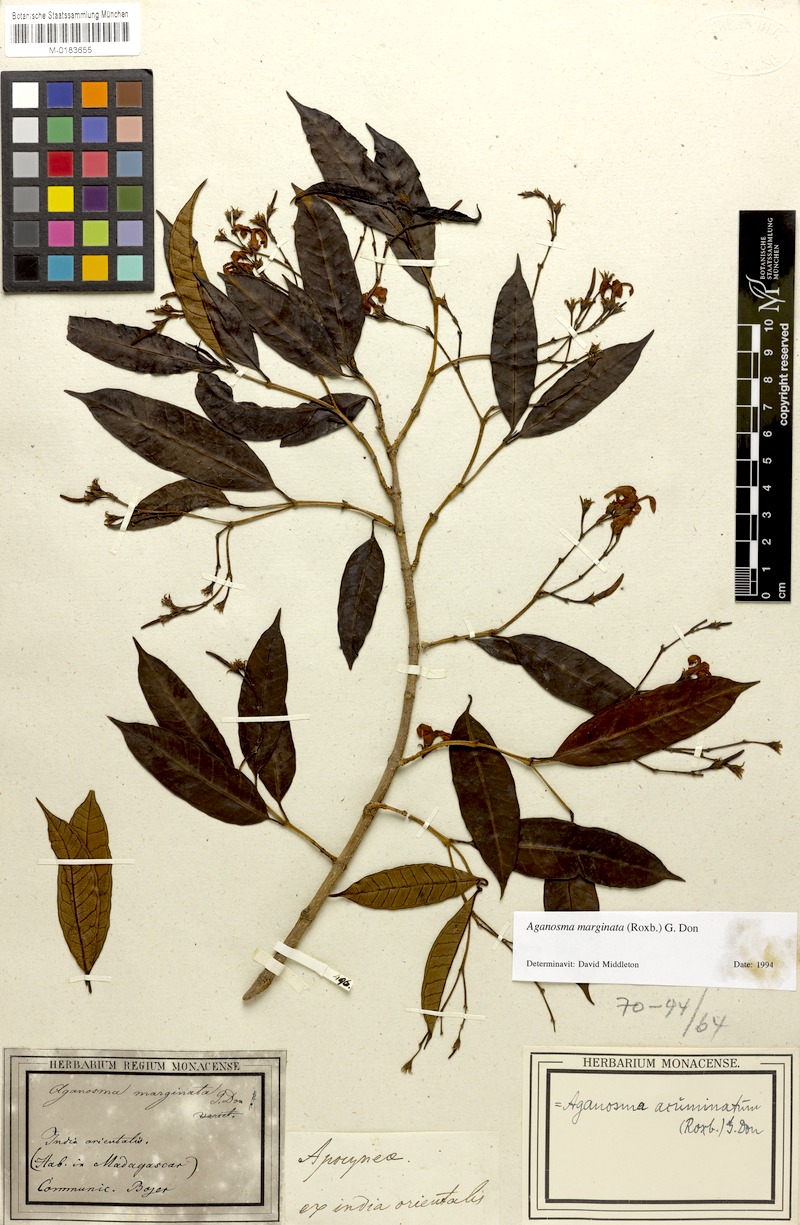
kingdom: Plantae
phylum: Tracheophyta
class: Magnoliopsida
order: Gentianales
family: Apocynaceae
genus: Amphineurion
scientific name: Amphineurion marginatum
